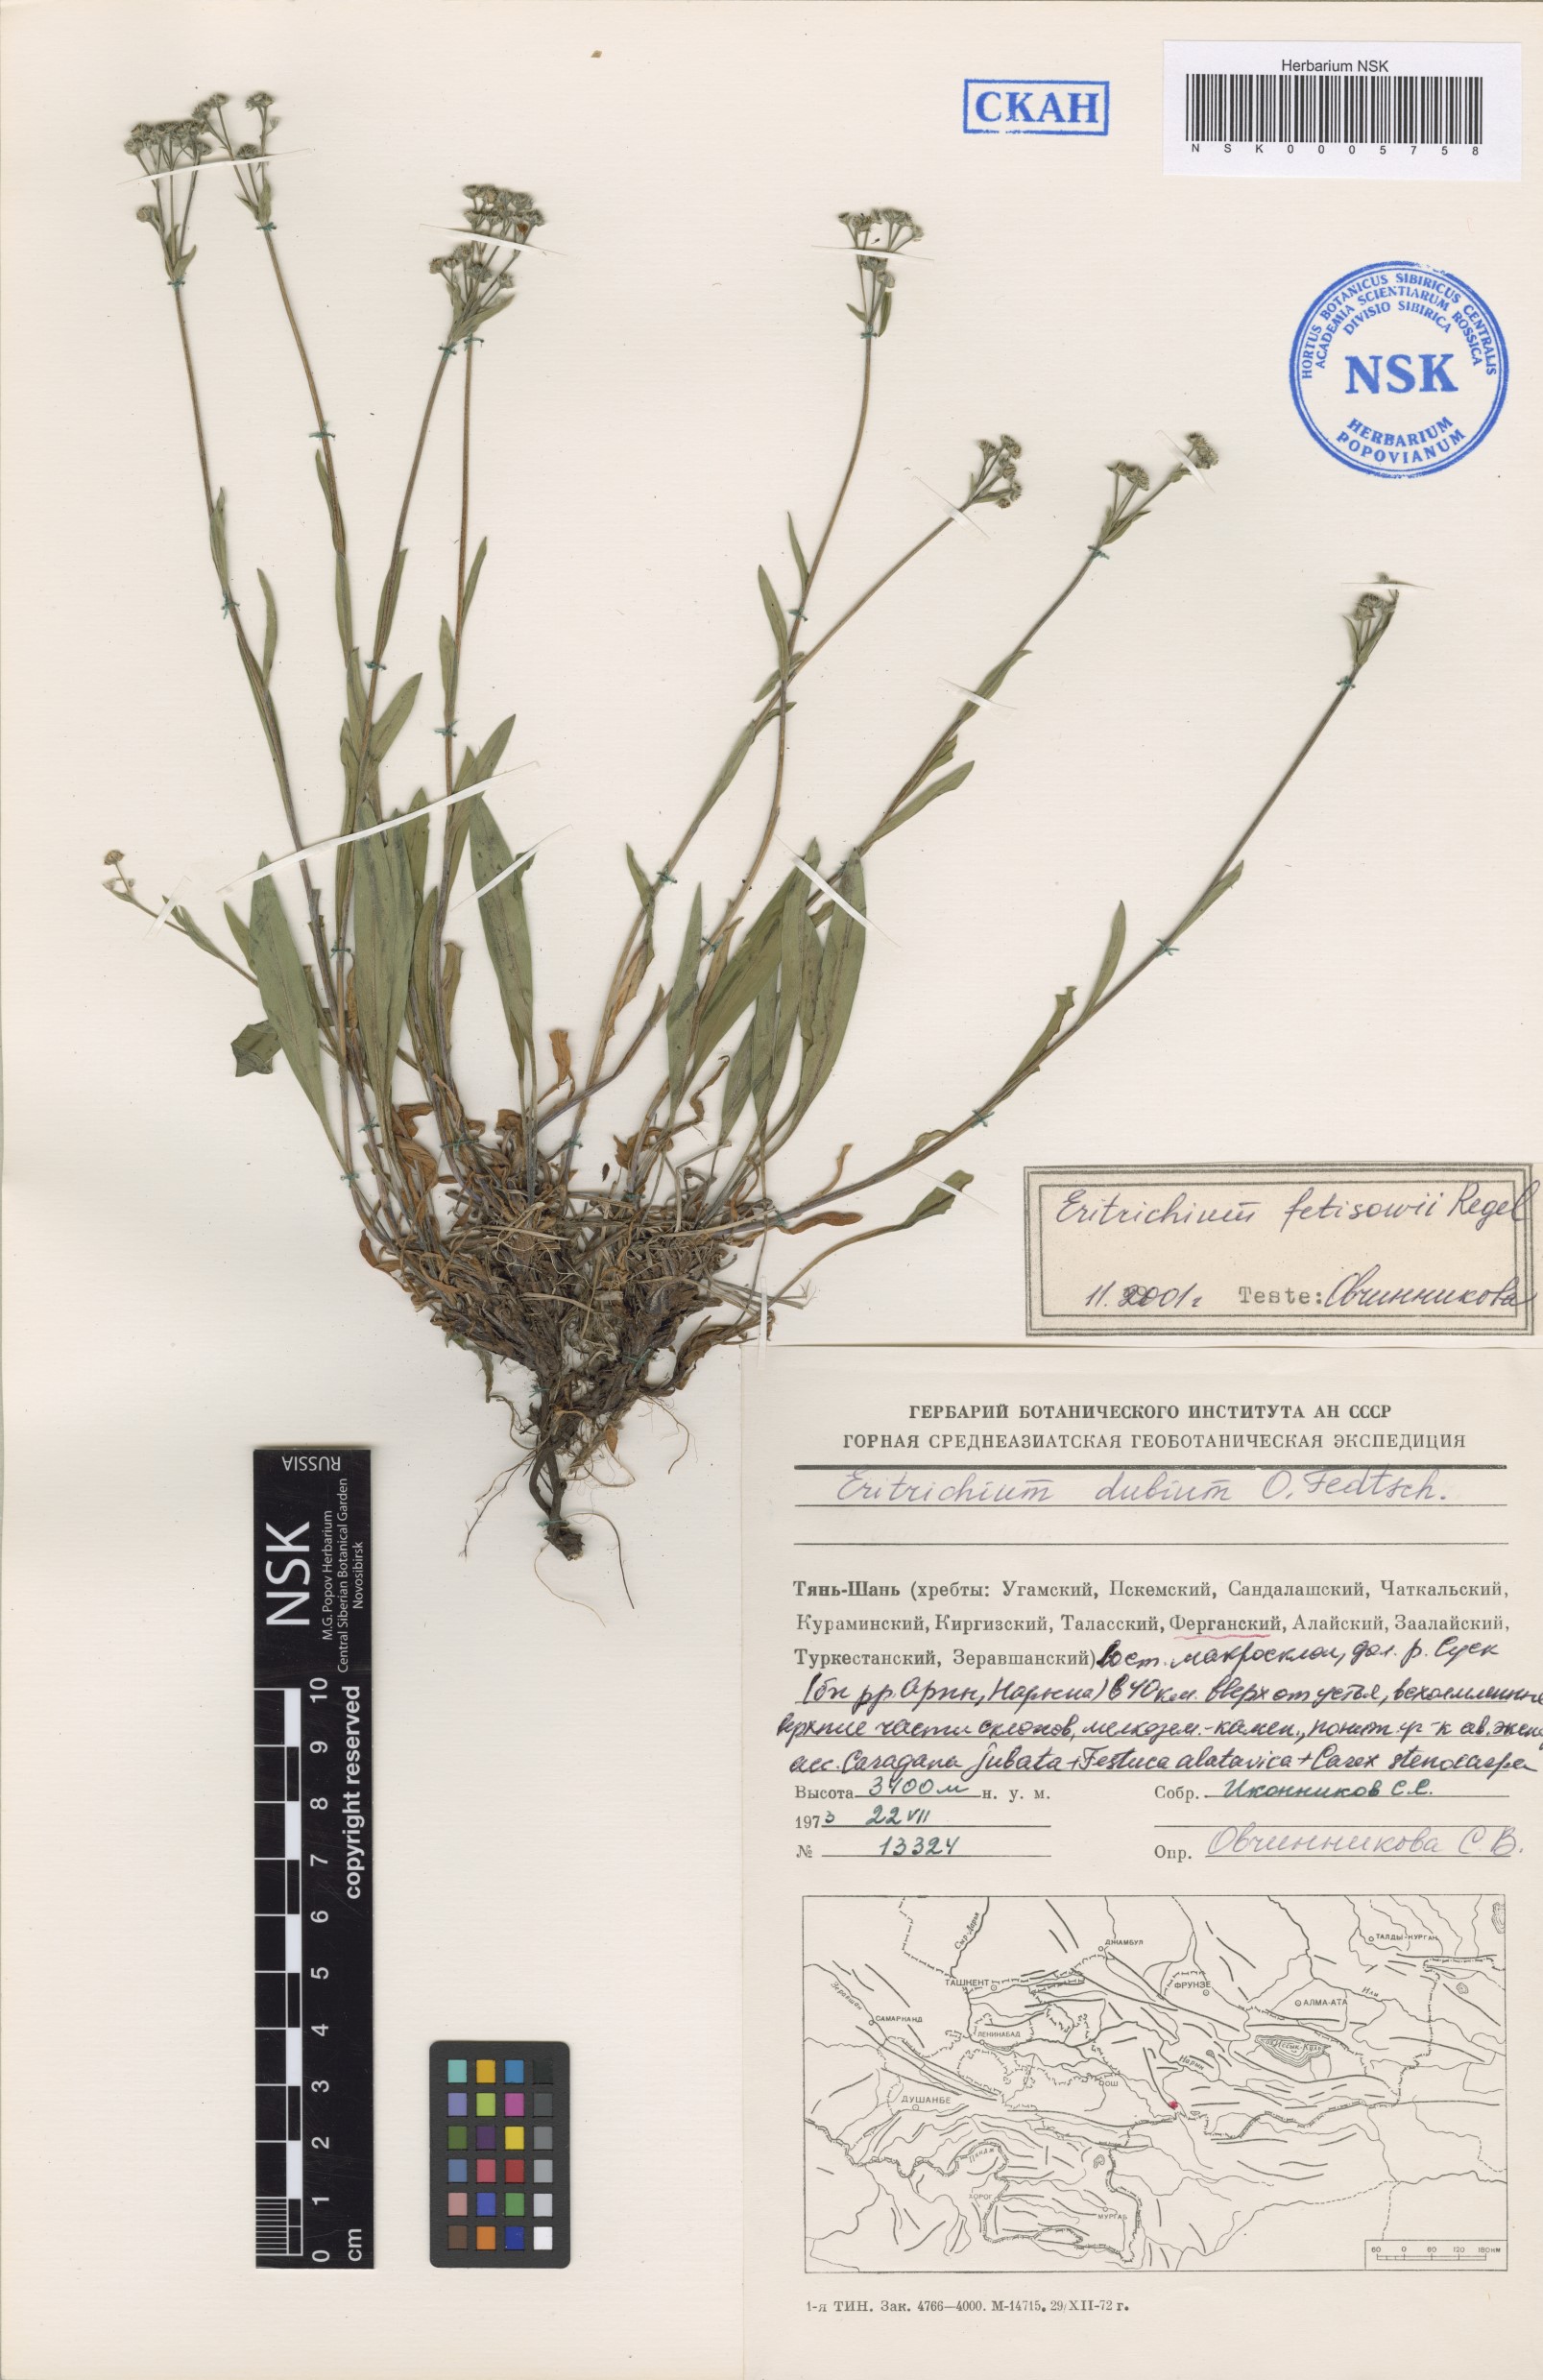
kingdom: Plantae
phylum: Tracheophyta
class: Magnoliopsida
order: Boraginales
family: Boraginaceae
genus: Eritrichium
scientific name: Eritrichium dubium
